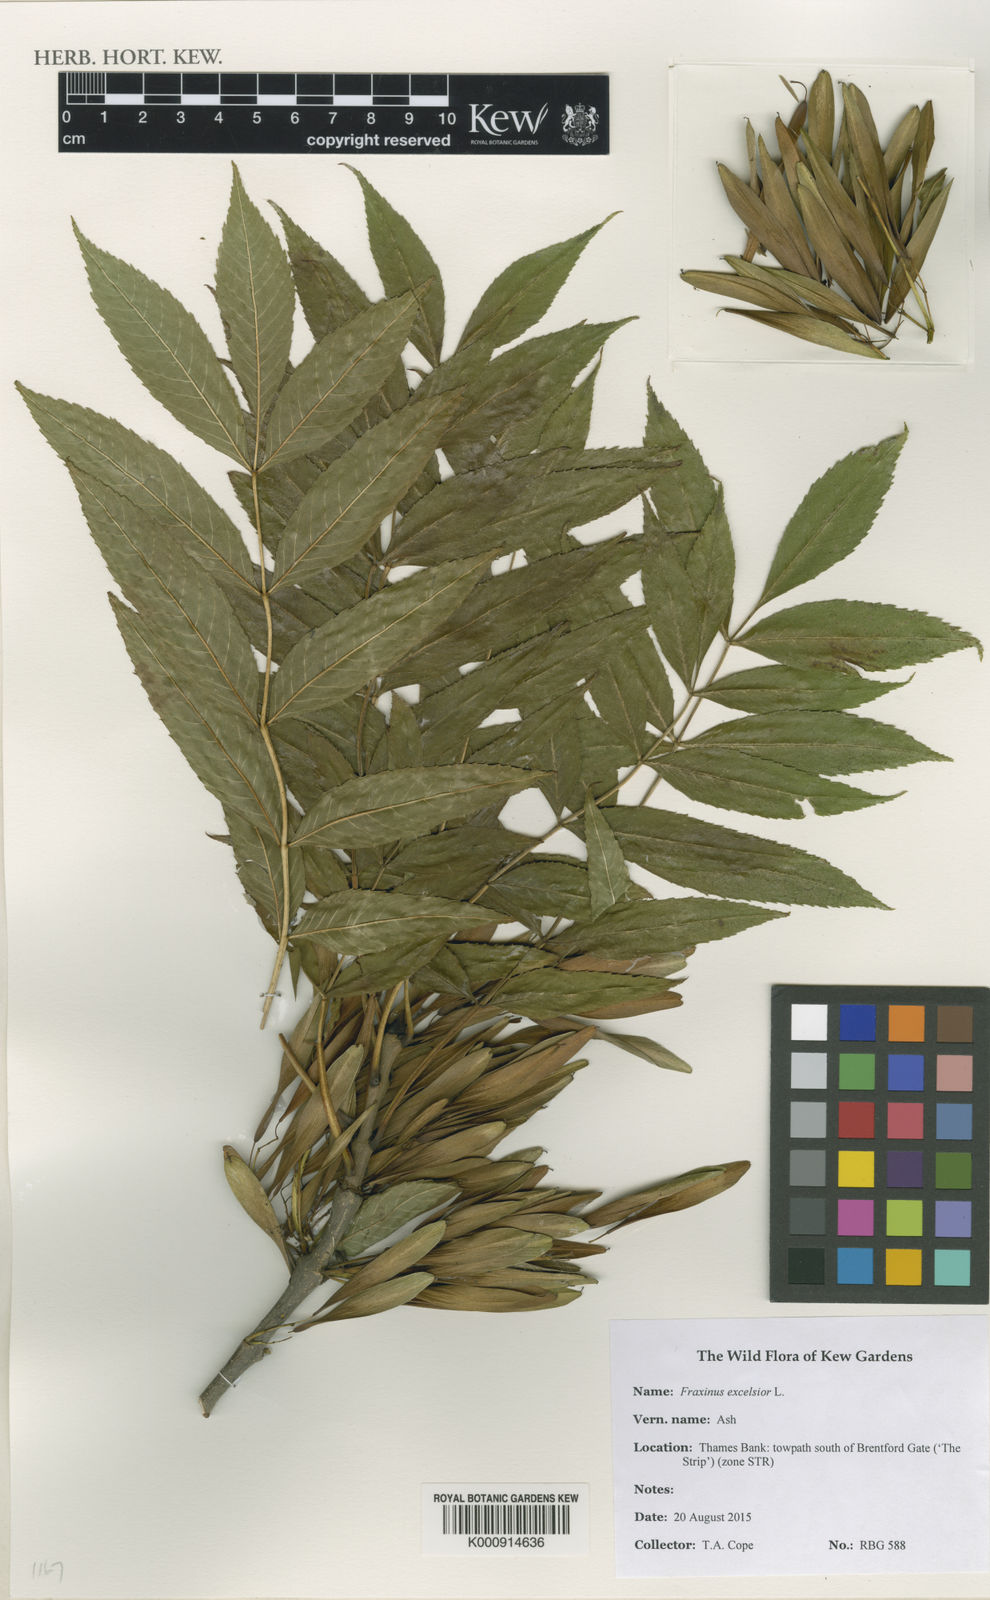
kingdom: Plantae
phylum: Tracheophyta
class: Magnoliopsida
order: Lamiales
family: Oleaceae
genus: Fraxinus
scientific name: Fraxinus excelsior
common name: European ash
